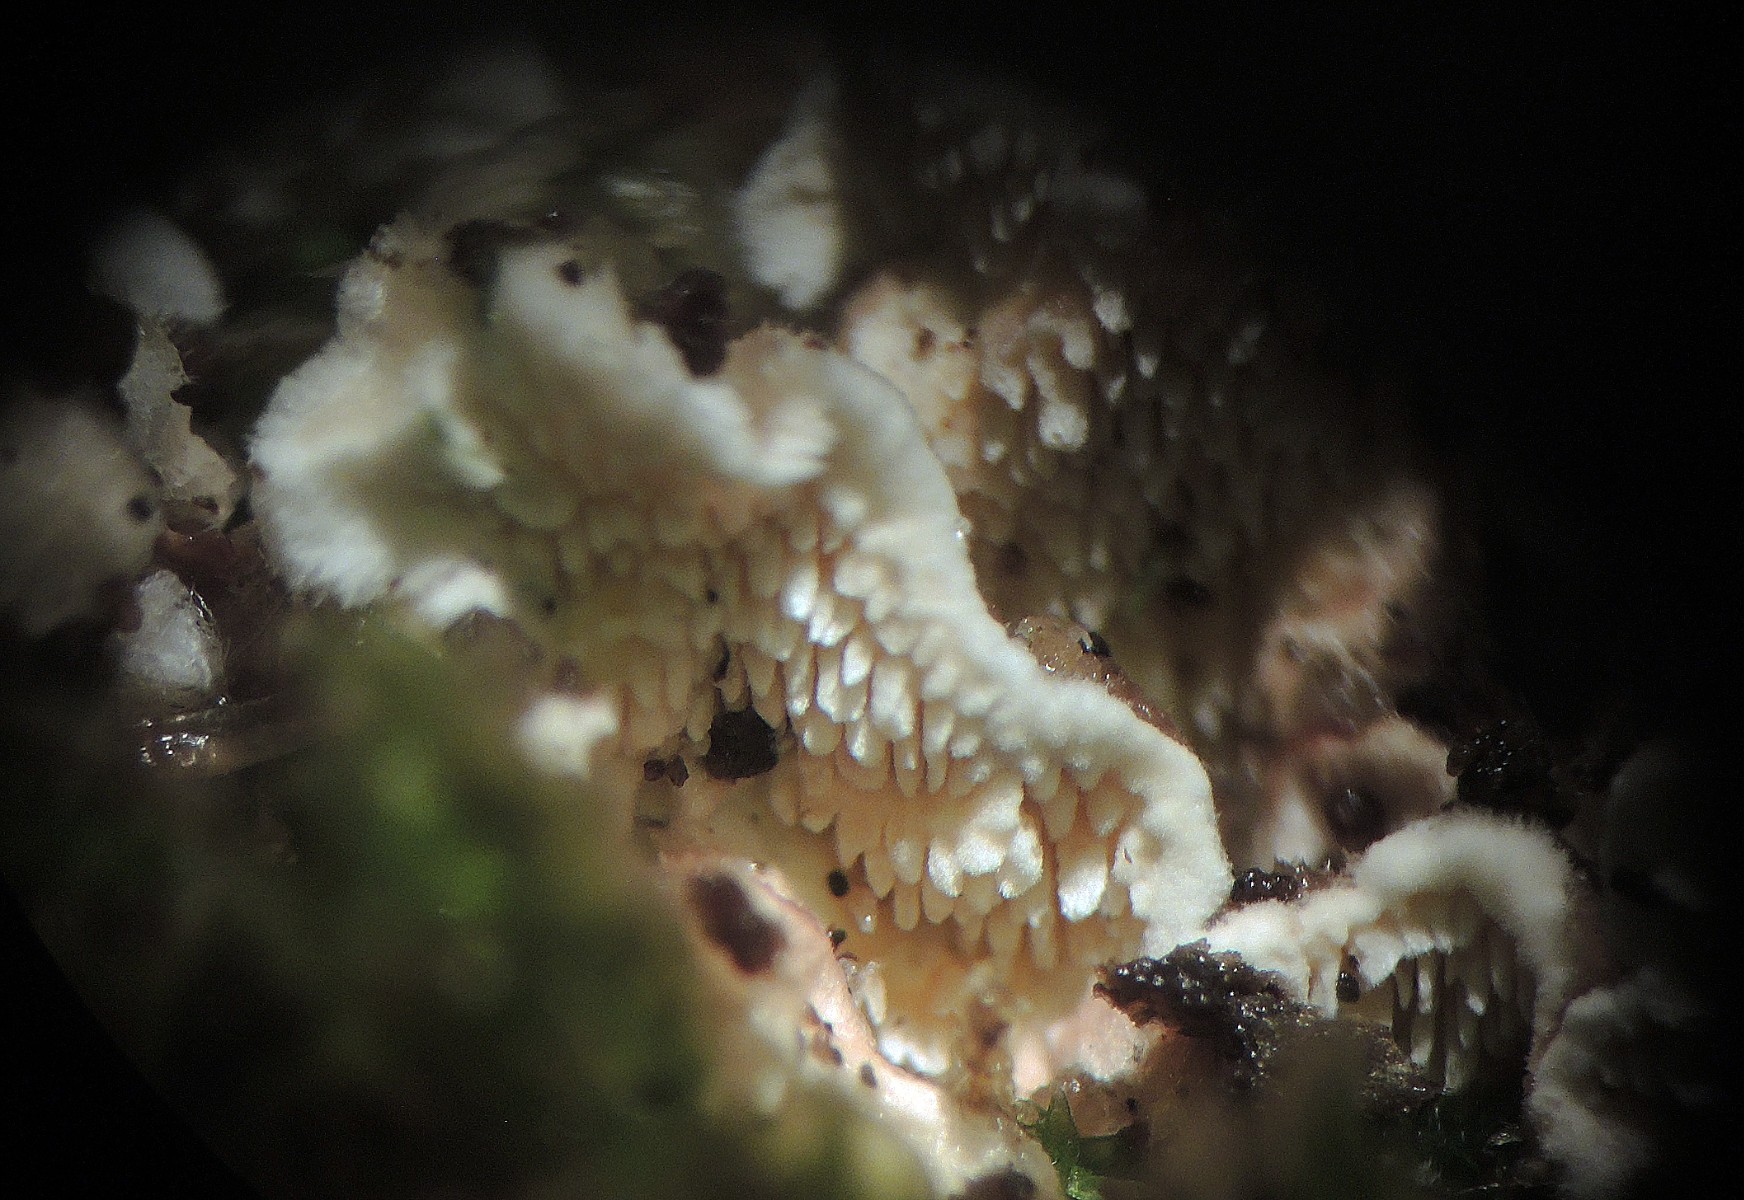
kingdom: Fungi
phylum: Basidiomycota
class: Agaricomycetes
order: Polyporales
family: Steccherinaceae
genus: Steccherinum
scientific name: Steccherinum bourdotii
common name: hat-skønpig
